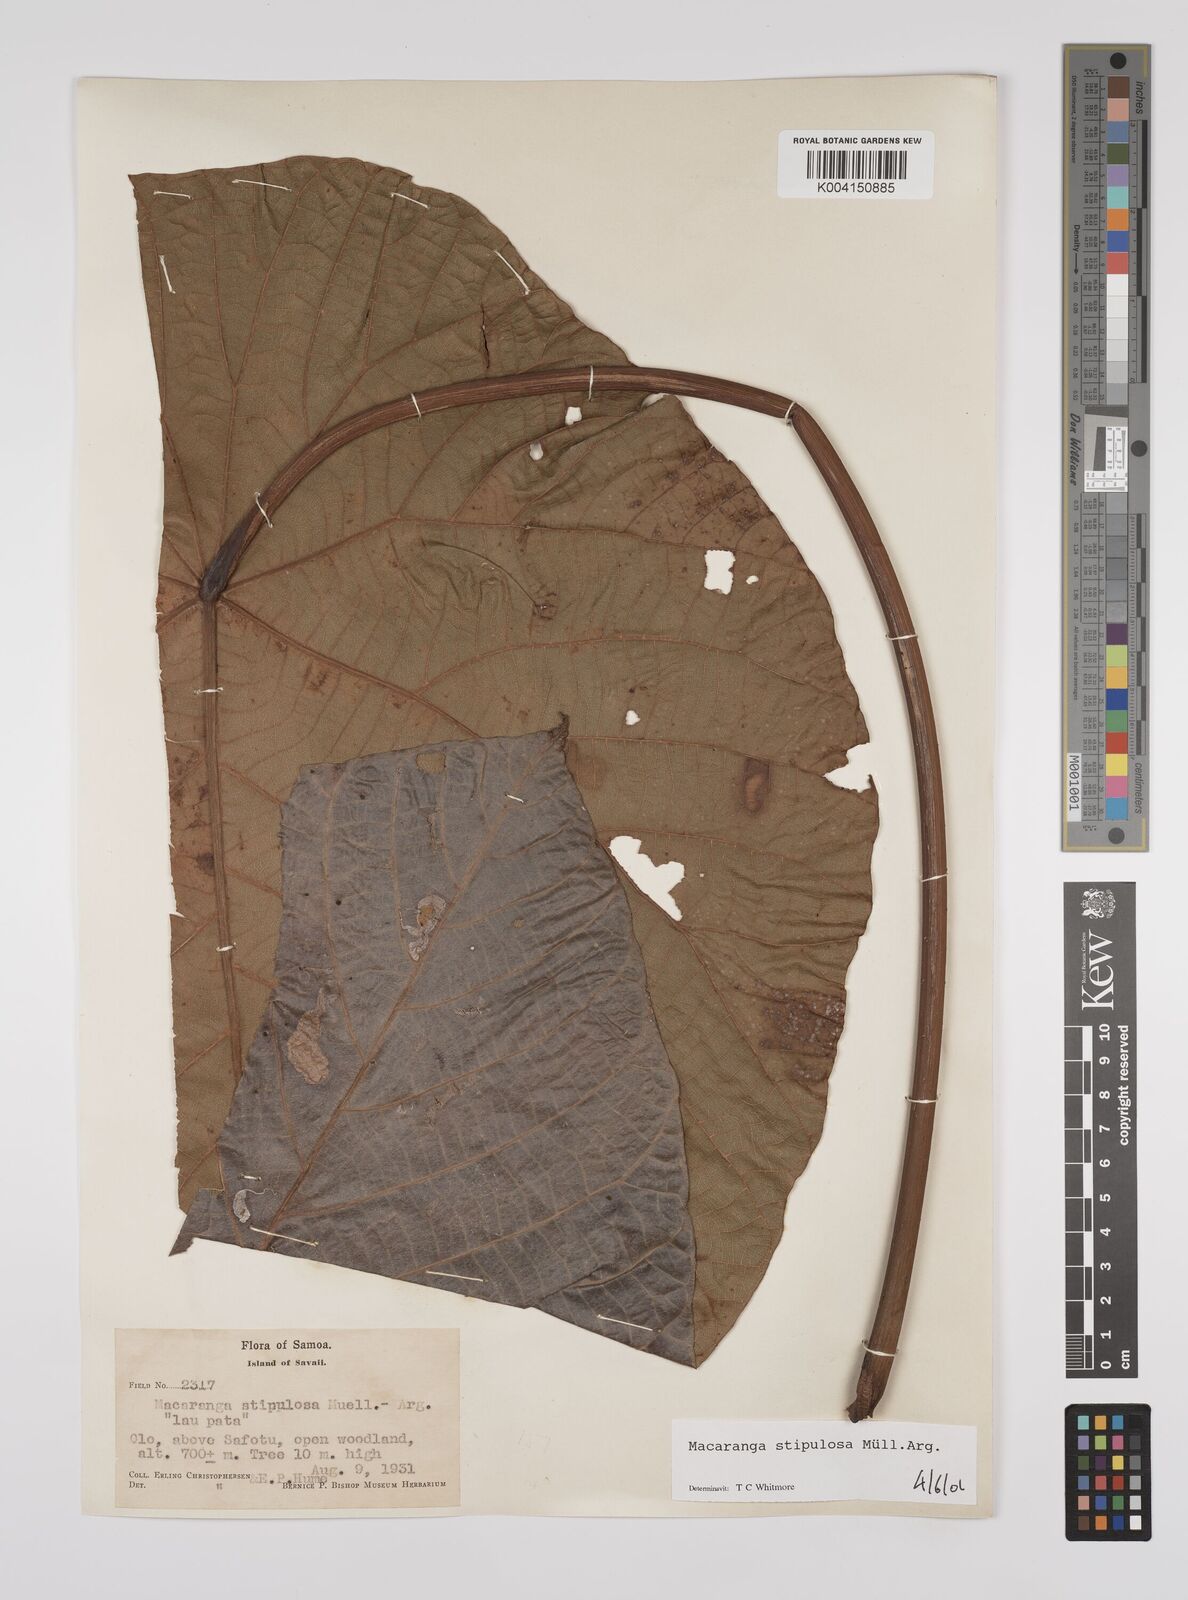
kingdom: Plantae
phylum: Tracheophyta
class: Magnoliopsida
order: Malpighiales
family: Euphorbiaceae
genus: Macaranga
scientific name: Macaranga stipulosa
